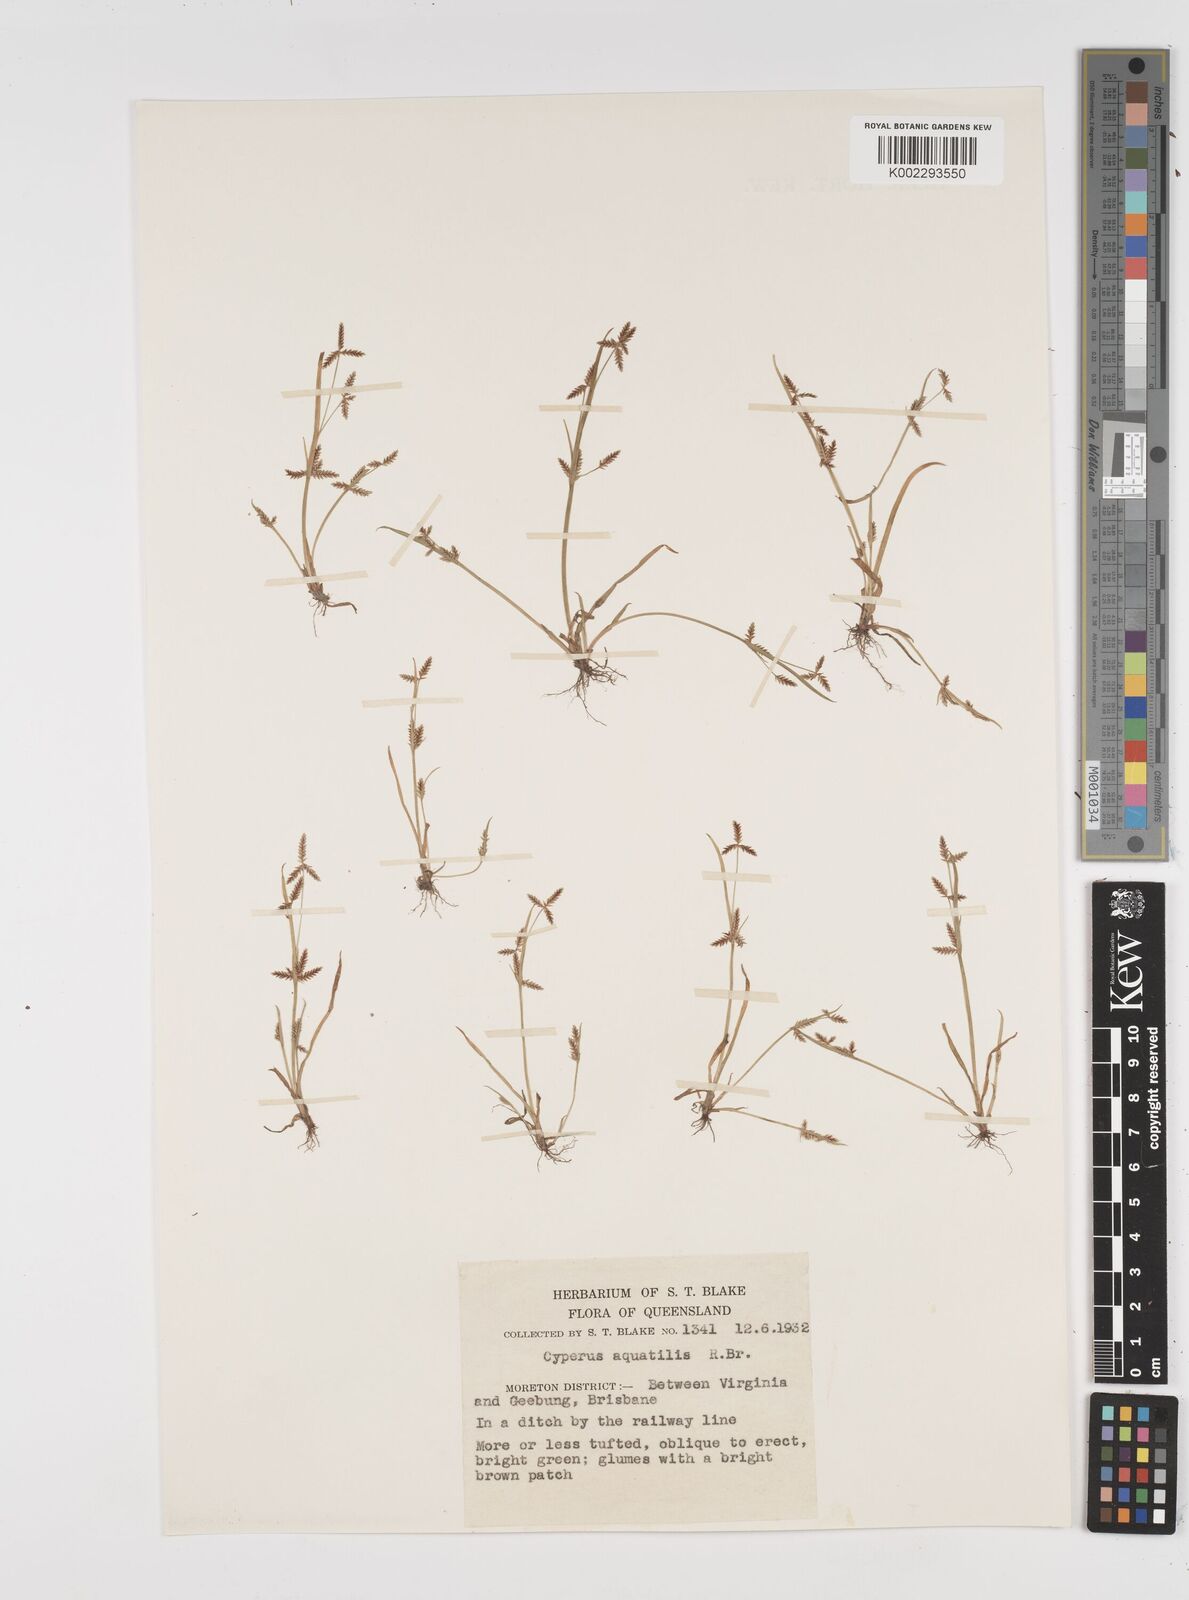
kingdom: Plantae
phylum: Tracheophyta
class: Liliopsida
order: Poales
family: Cyperaceae
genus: Cyperus
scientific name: Cyperus aquatilis
